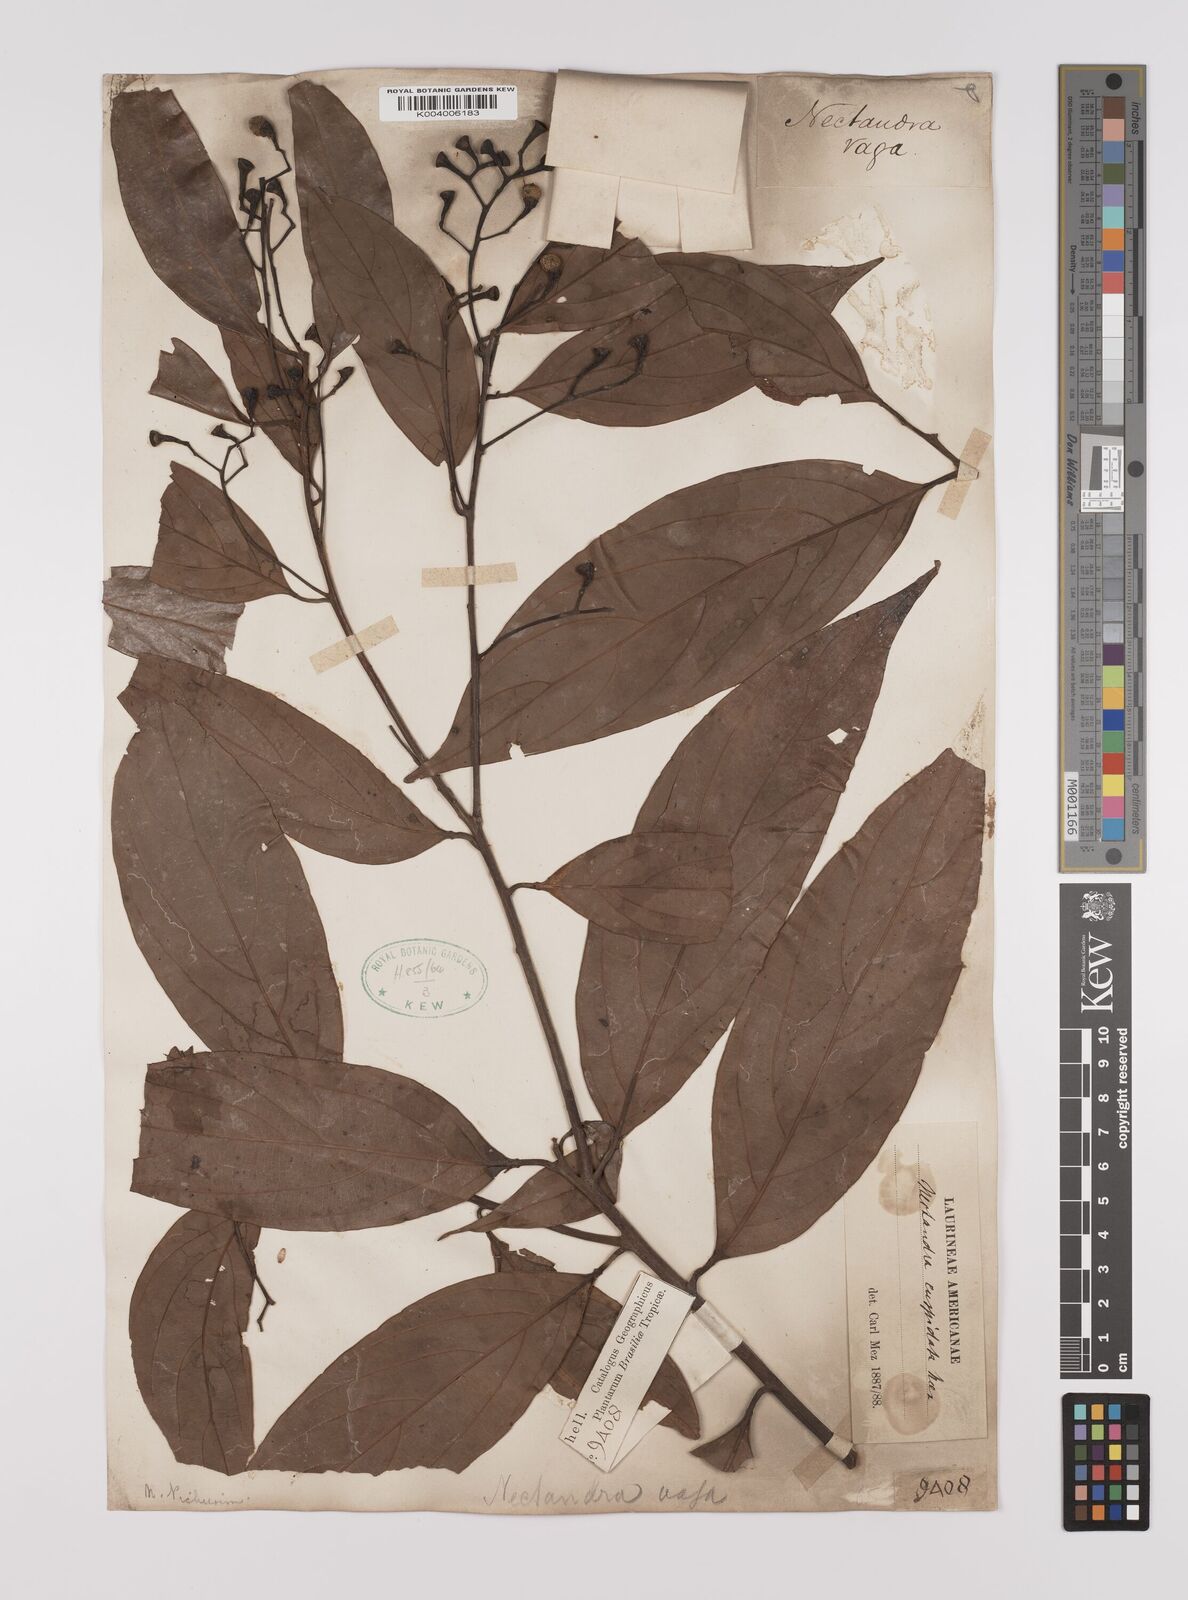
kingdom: Plantae
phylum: Tracheophyta
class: Magnoliopsida
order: Laurales
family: Lauraceae
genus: Nectandra
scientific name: Nectandra cuspidata
